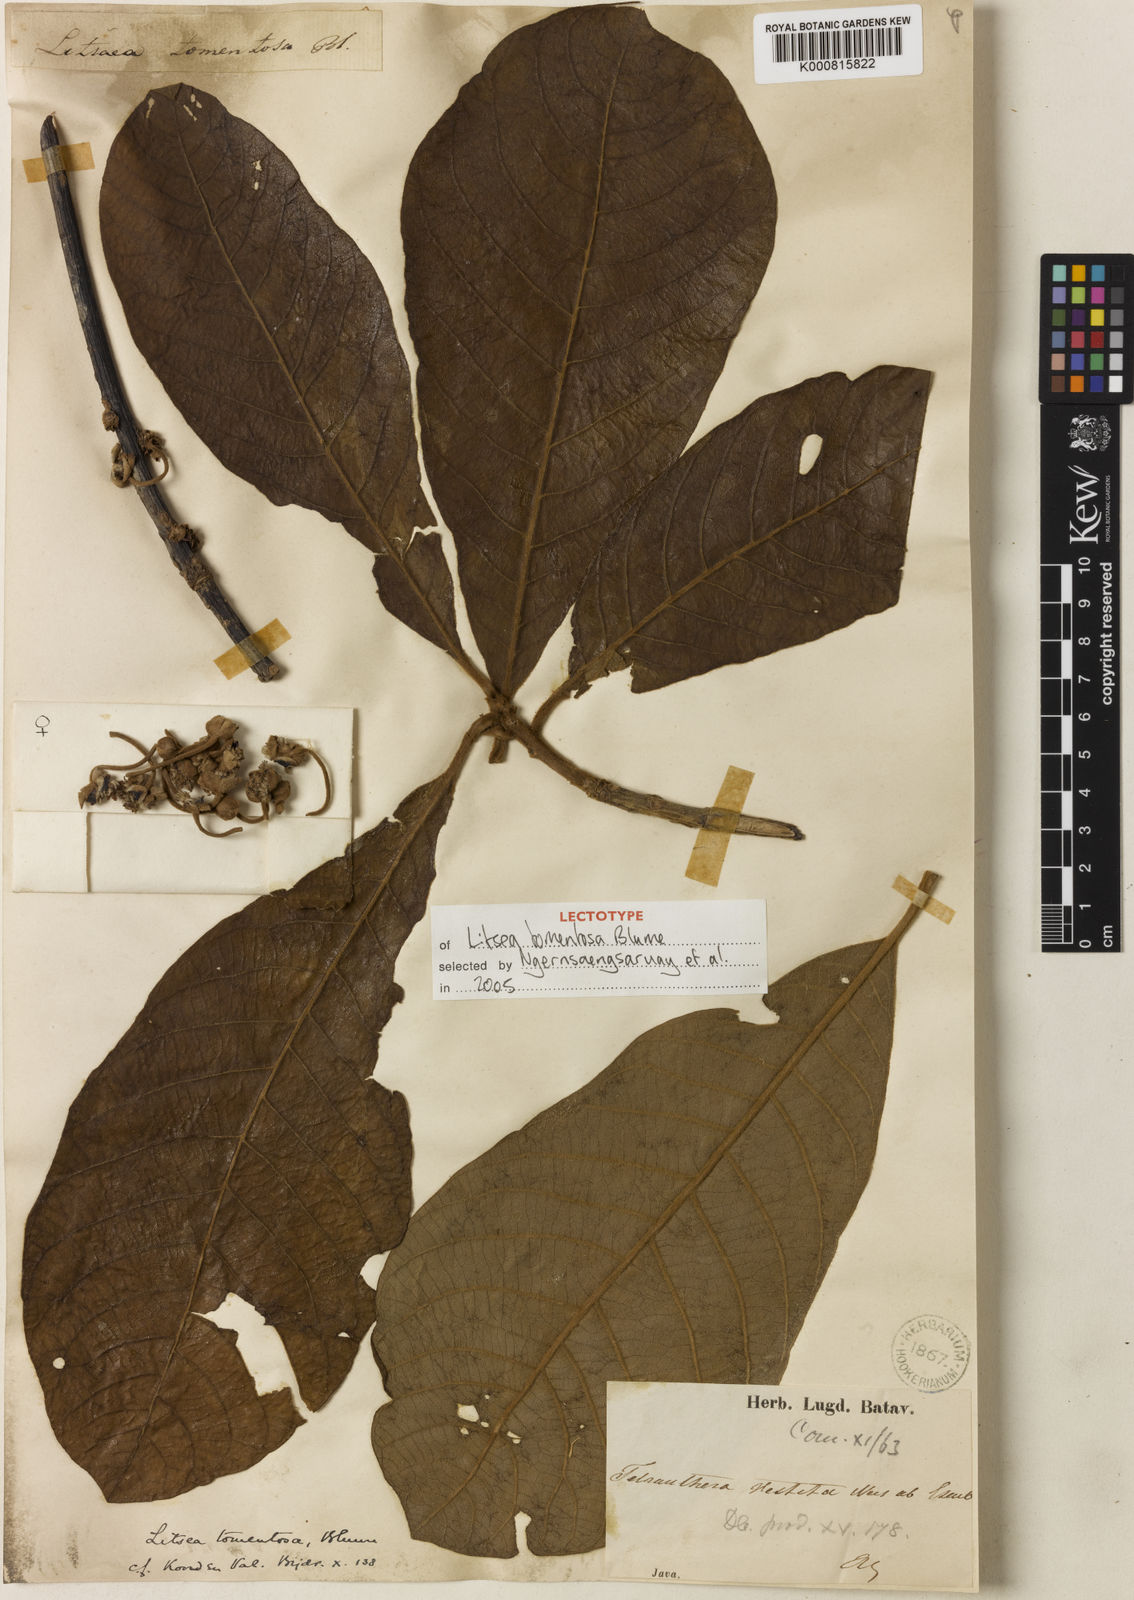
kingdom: Plantae
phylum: Tracheophyta
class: Magnoliopsida
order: Laurales
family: Lauraceae
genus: Litsea
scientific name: Litsea tomentosa
